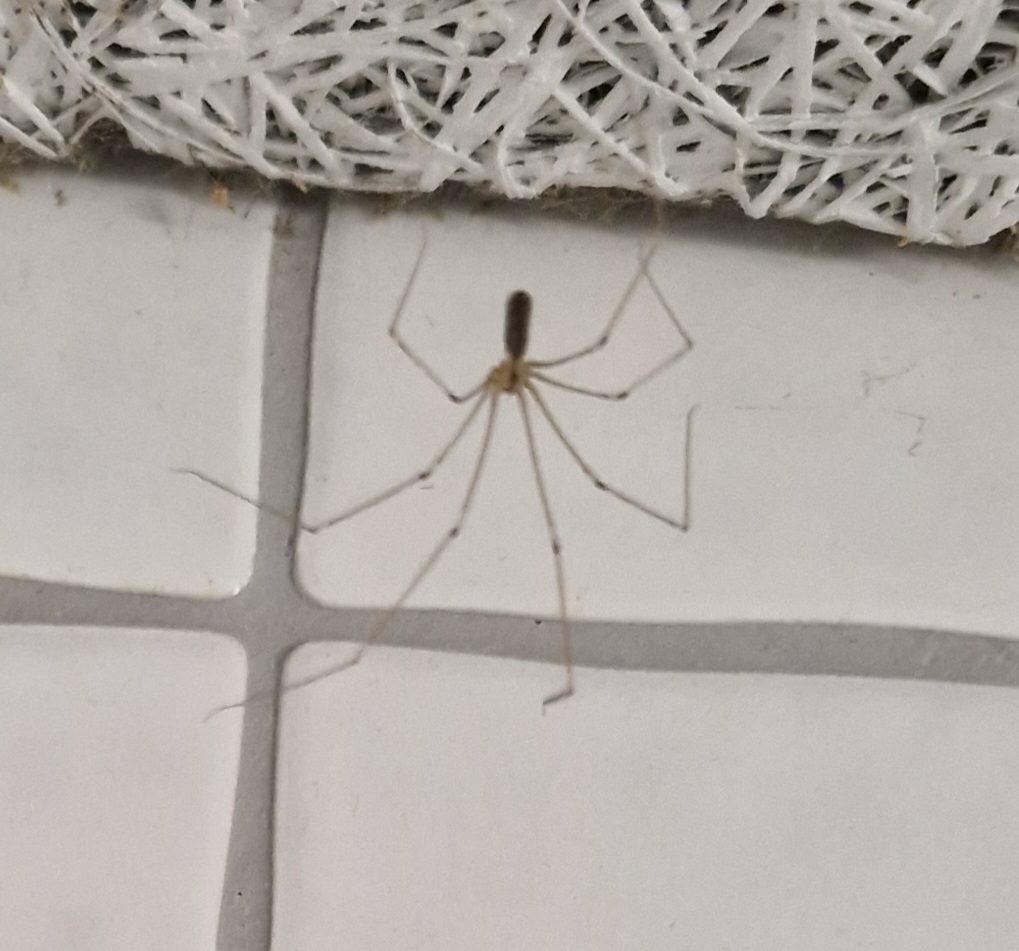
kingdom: Animalia
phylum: Arthropoda
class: Arachnida
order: Araneae
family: Pholcidae
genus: Pholcus
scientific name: Pholcus phalangioides
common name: Mejeredderkop
